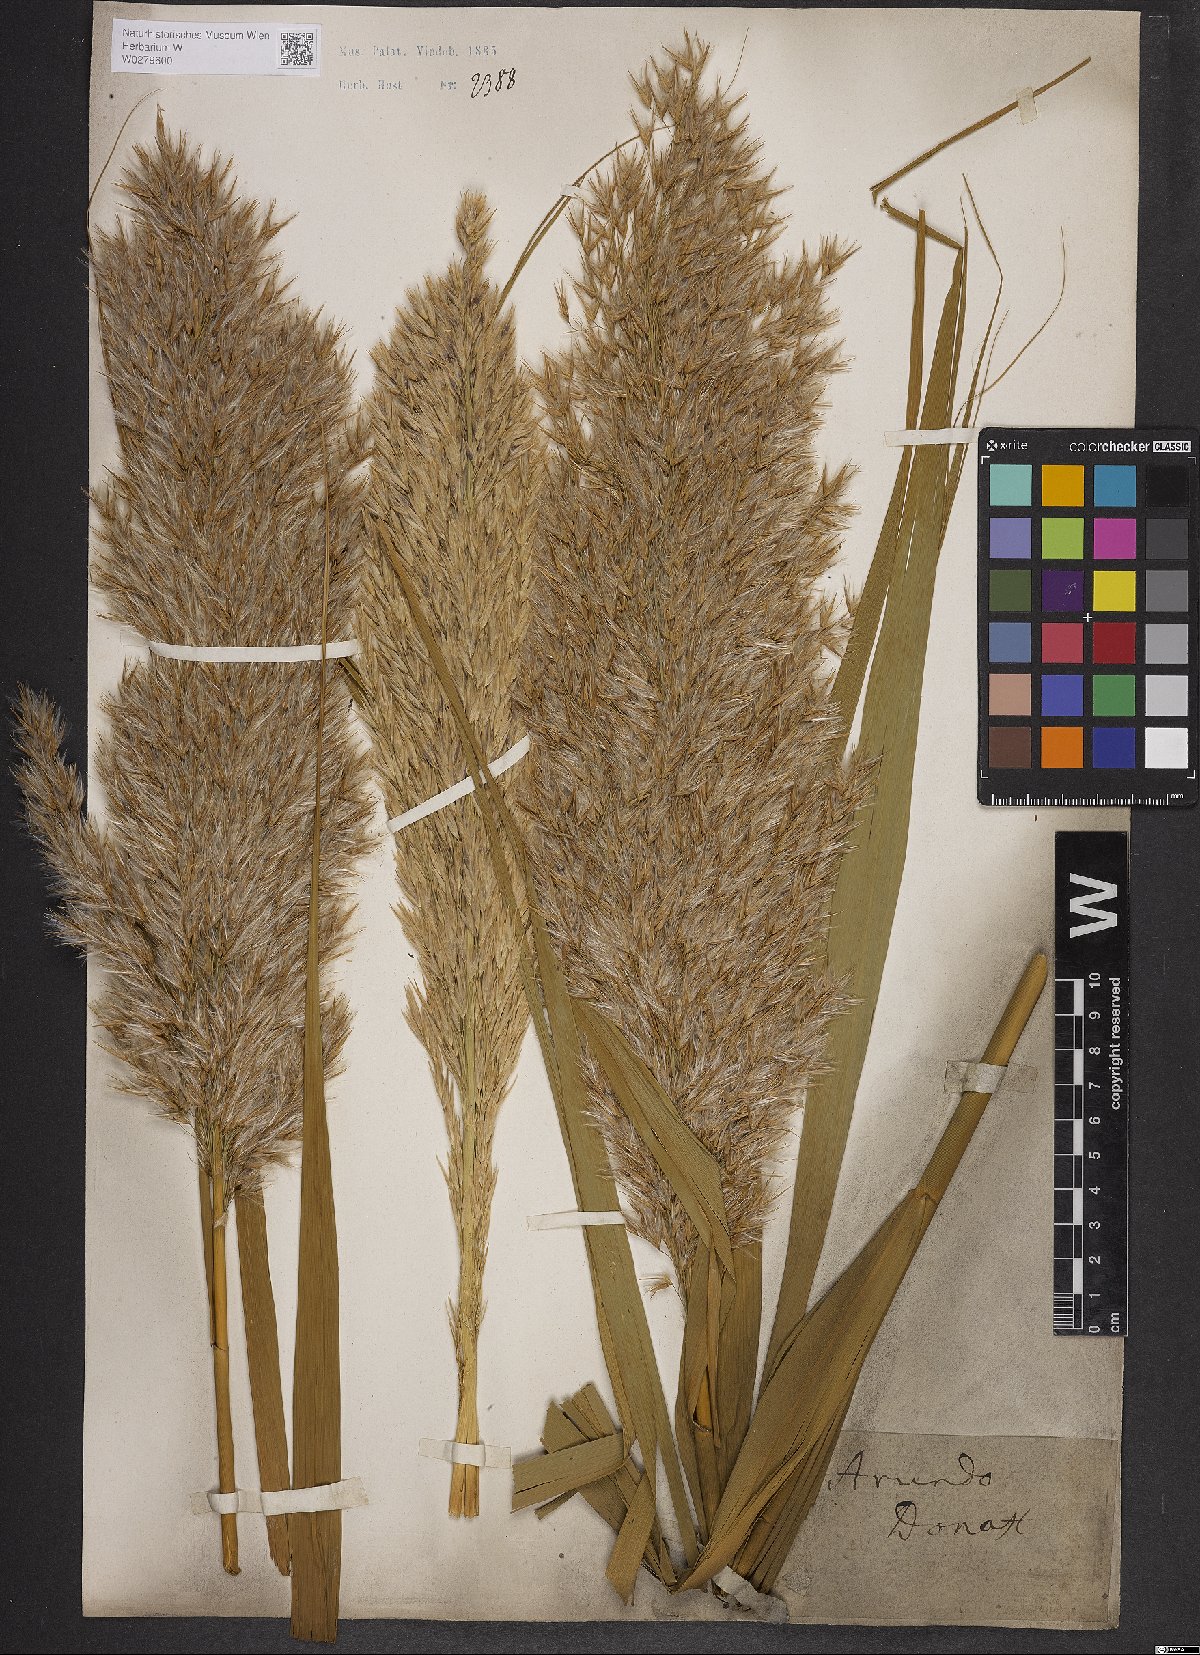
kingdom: Plantae
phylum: Tracheophyta
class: Liliopsida
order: Poales
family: Poaceae
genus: Arundo
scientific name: Arundo donax
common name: Giant reed
